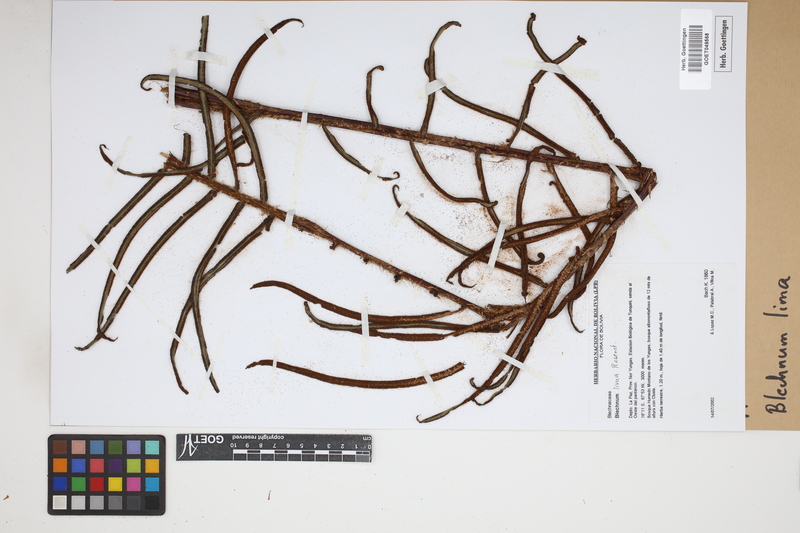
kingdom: Plantae
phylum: Tracheophyta
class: Polypodiopsida
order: Polypodiales
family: Blechnaceae
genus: Parablechnum
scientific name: Parablechnum lima
